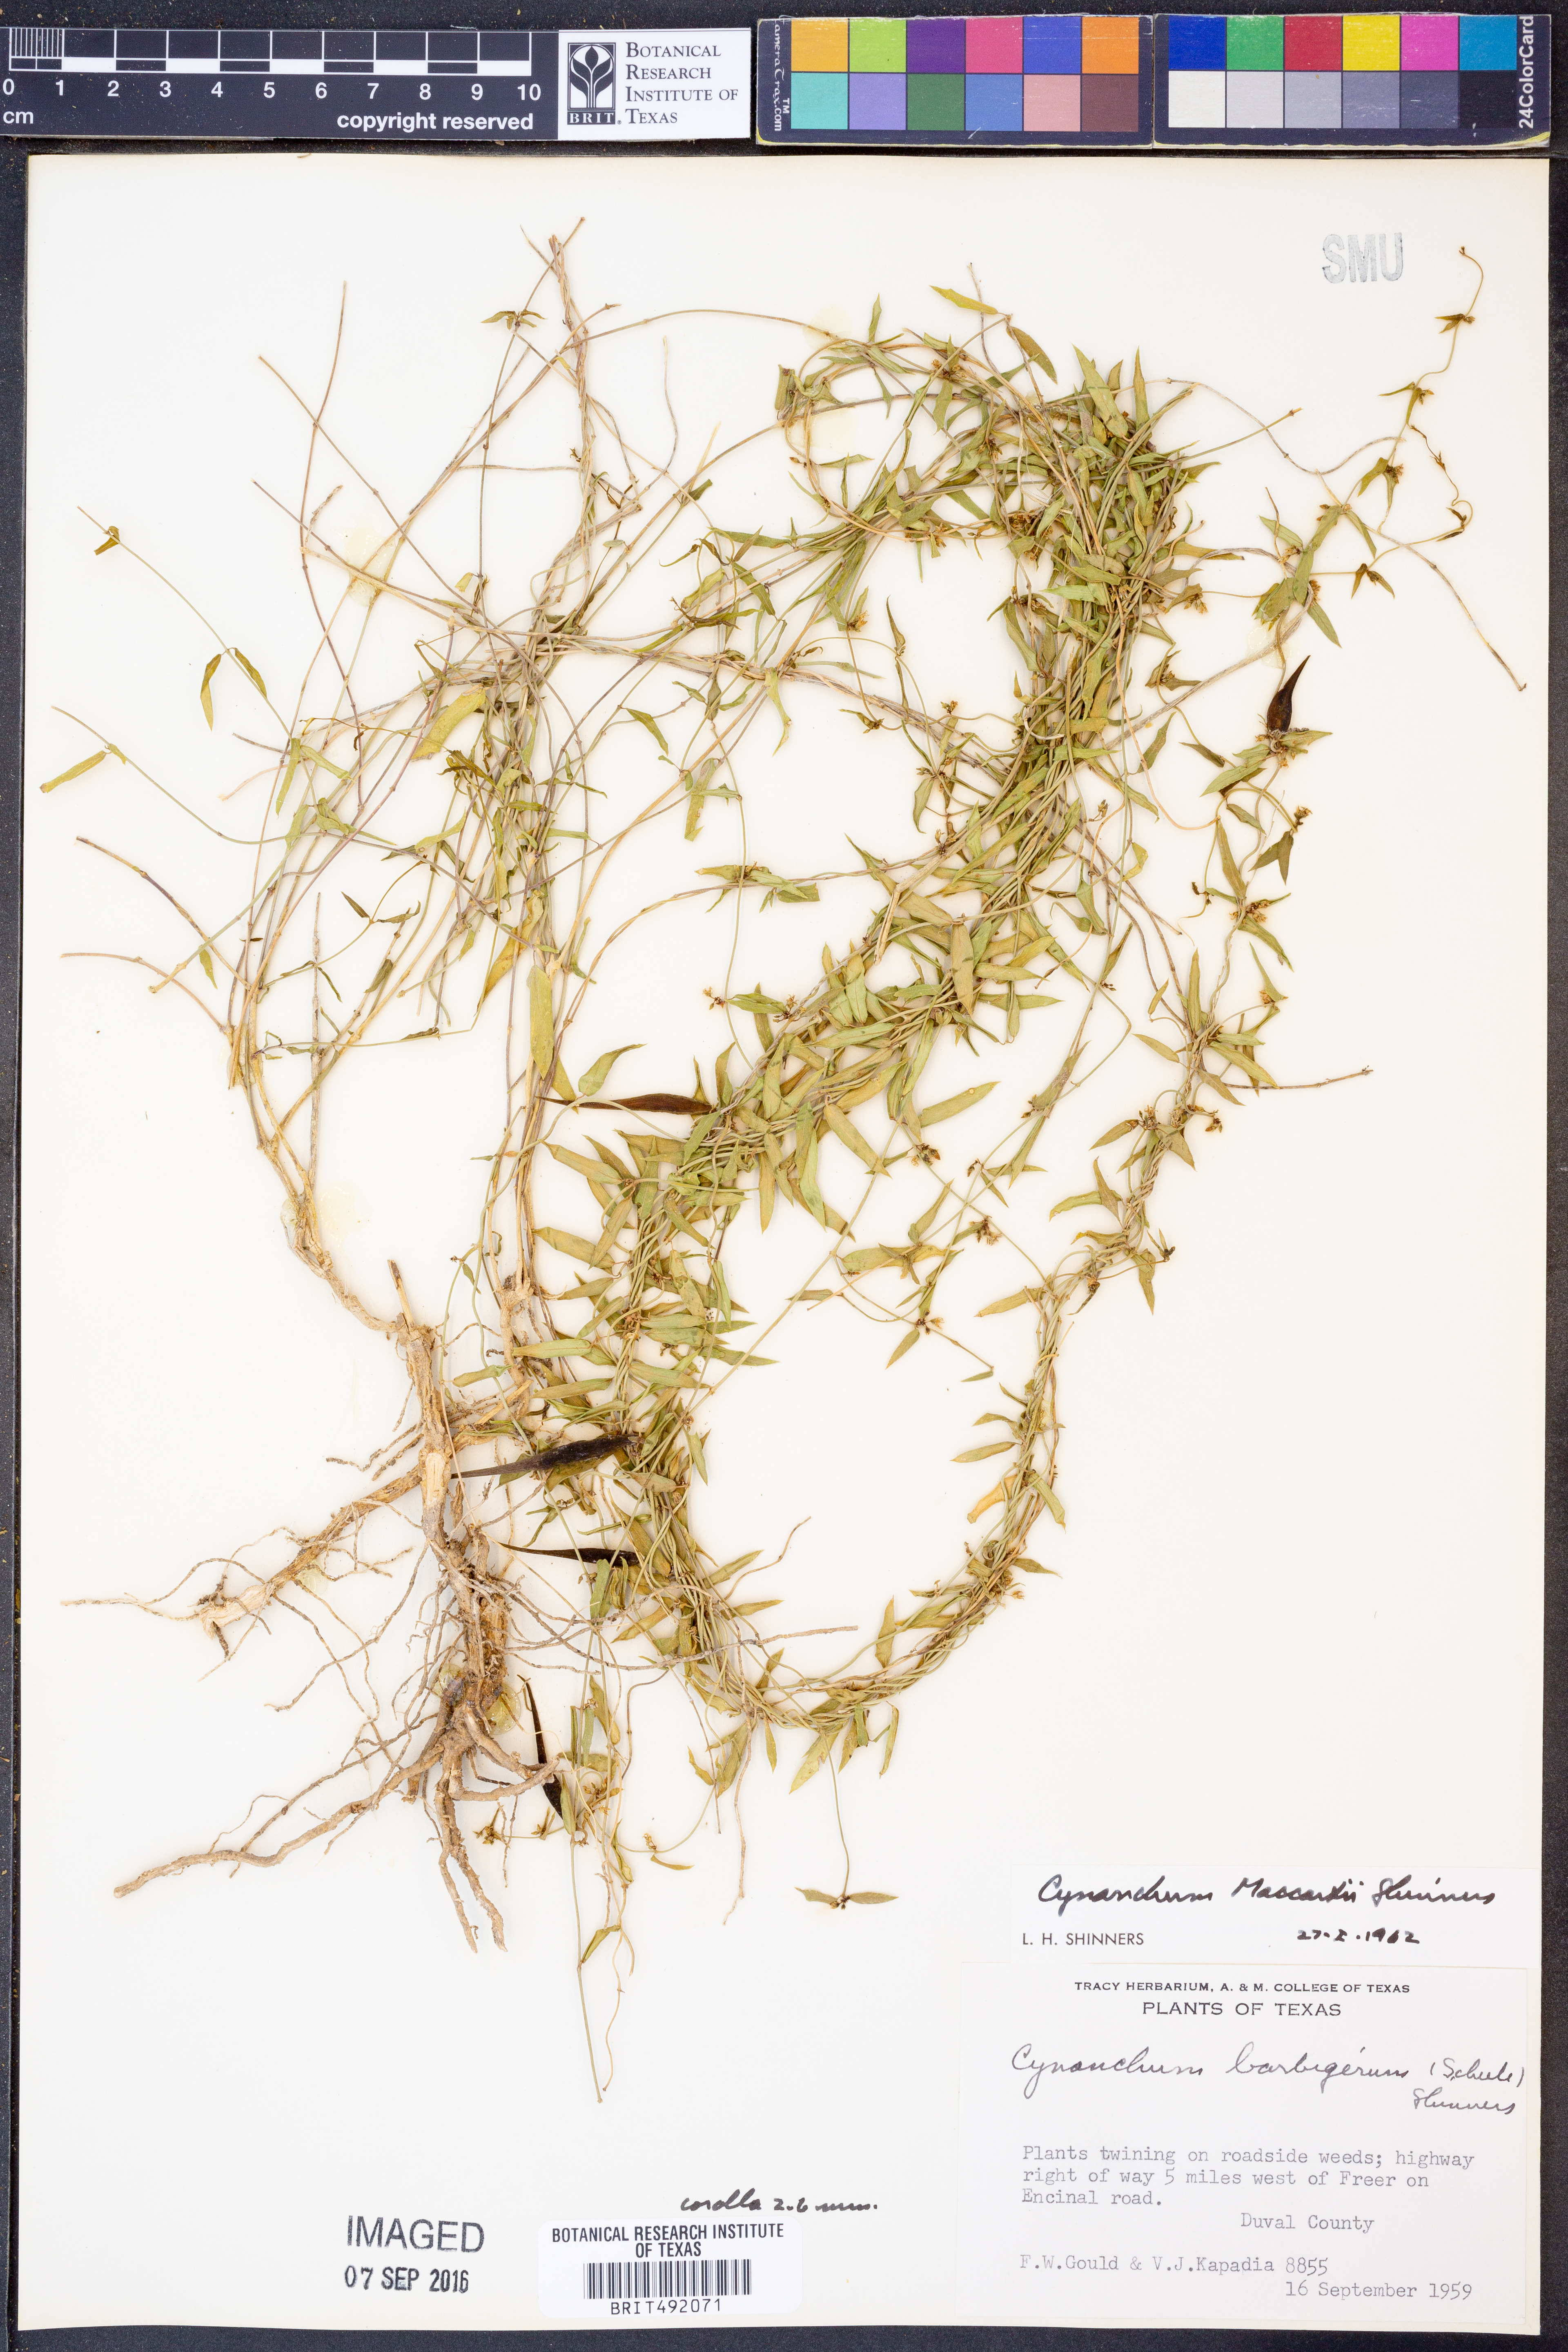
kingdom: Plantae
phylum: Tracheophyta
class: Magnoliopsida
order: Gentianales
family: Apocynaceae
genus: Metastelma
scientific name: Metastelma palmeri
